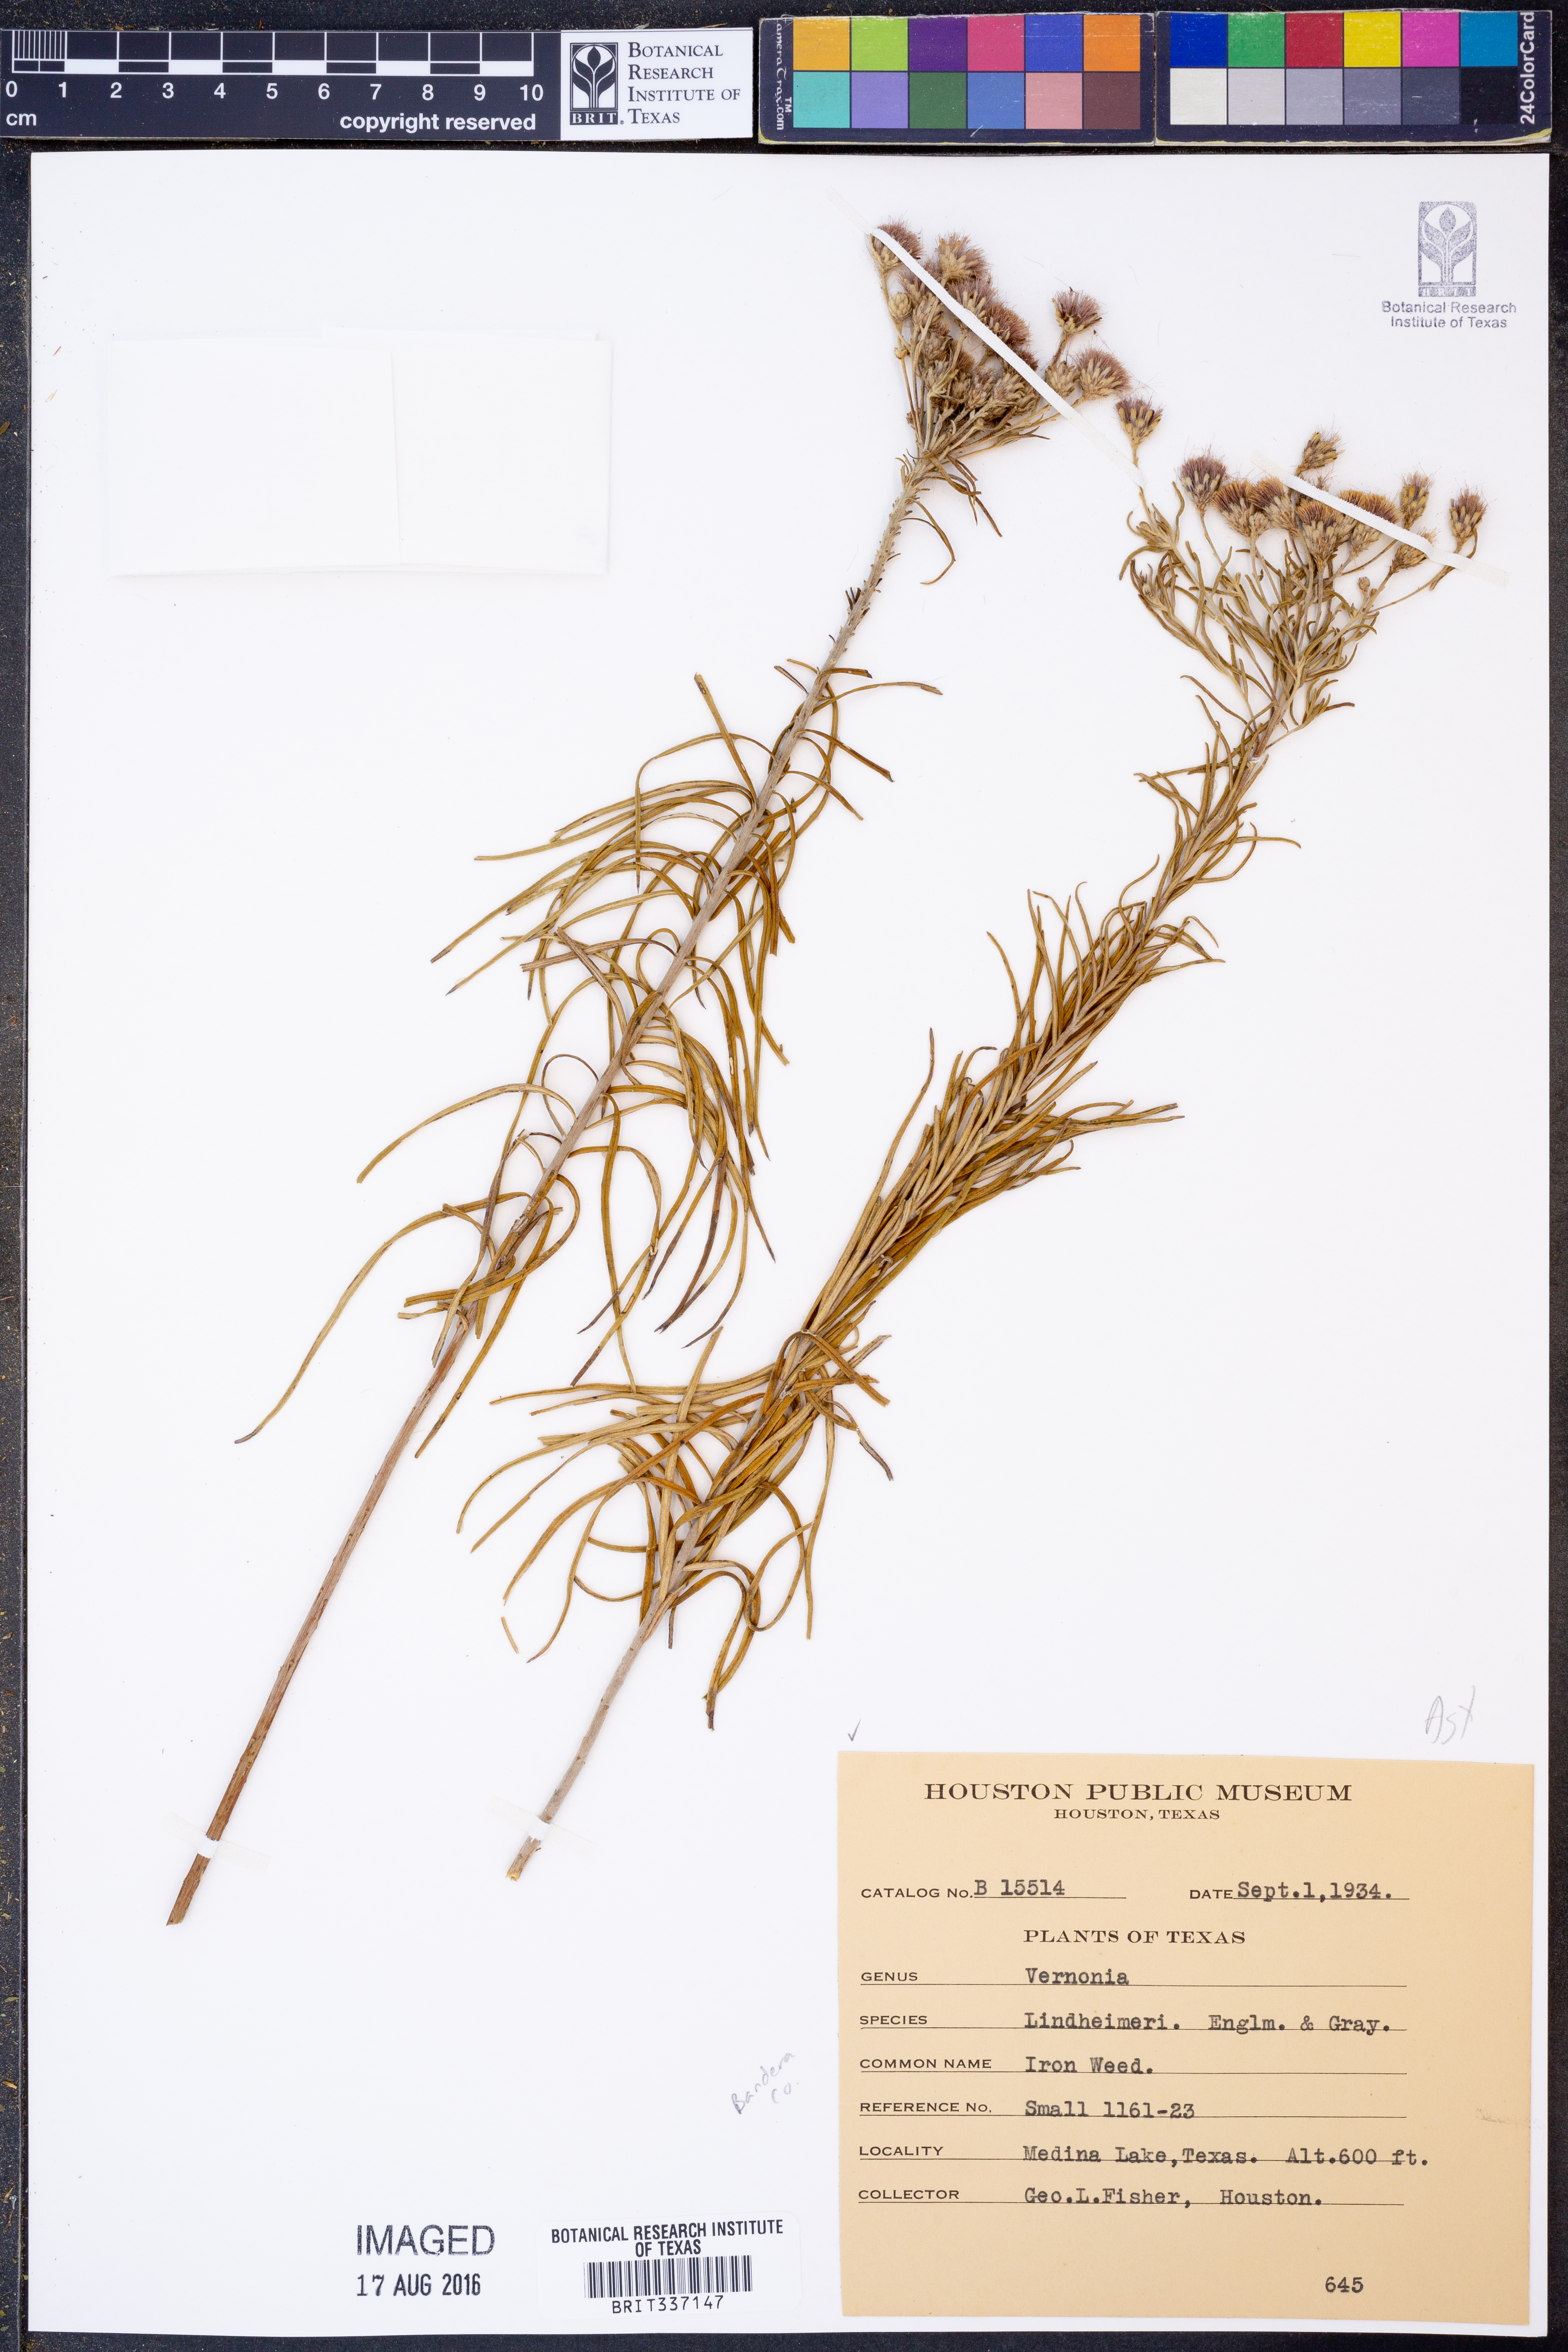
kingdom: Plantae
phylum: Tracheophyta
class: Magnoliopsida
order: Asterales
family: Asteraceae
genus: Vernonia
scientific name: Vernonia lindheimeri
